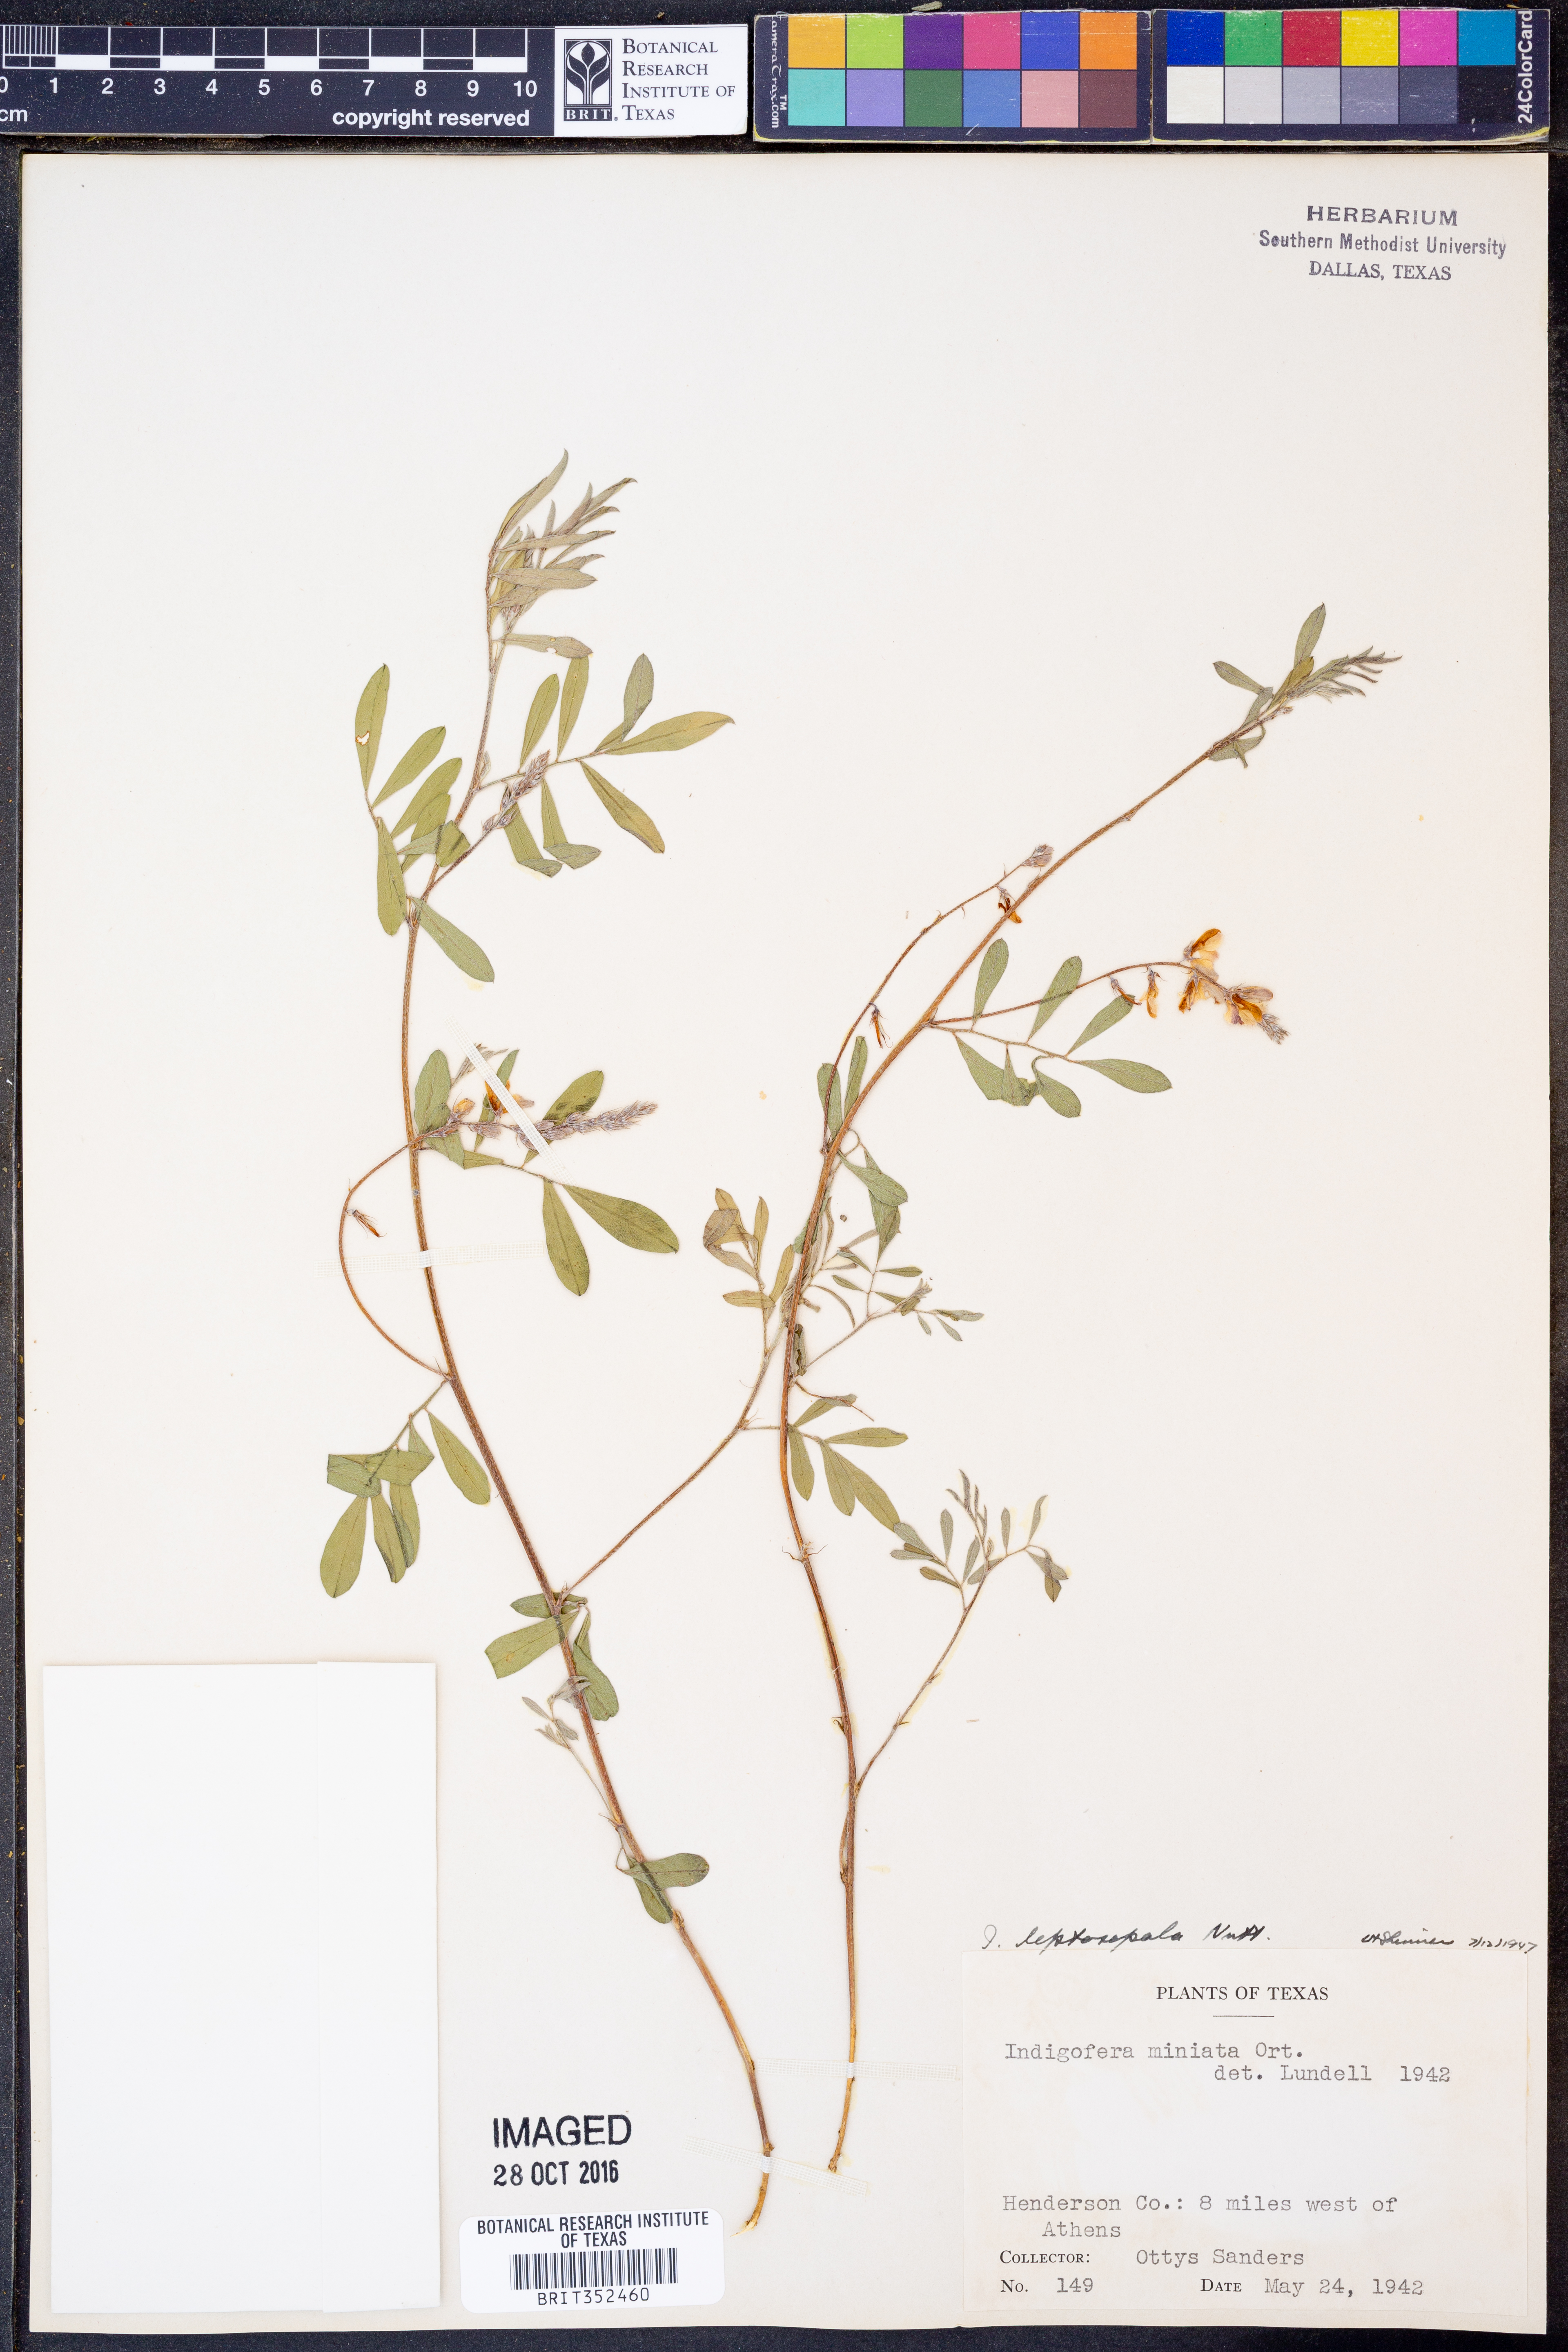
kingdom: Plantae
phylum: Tracheophyta
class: Magnoliopsida
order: Fabales
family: Fabaceae
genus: Indigofera
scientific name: Indigofera miniata
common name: Coast indigo
